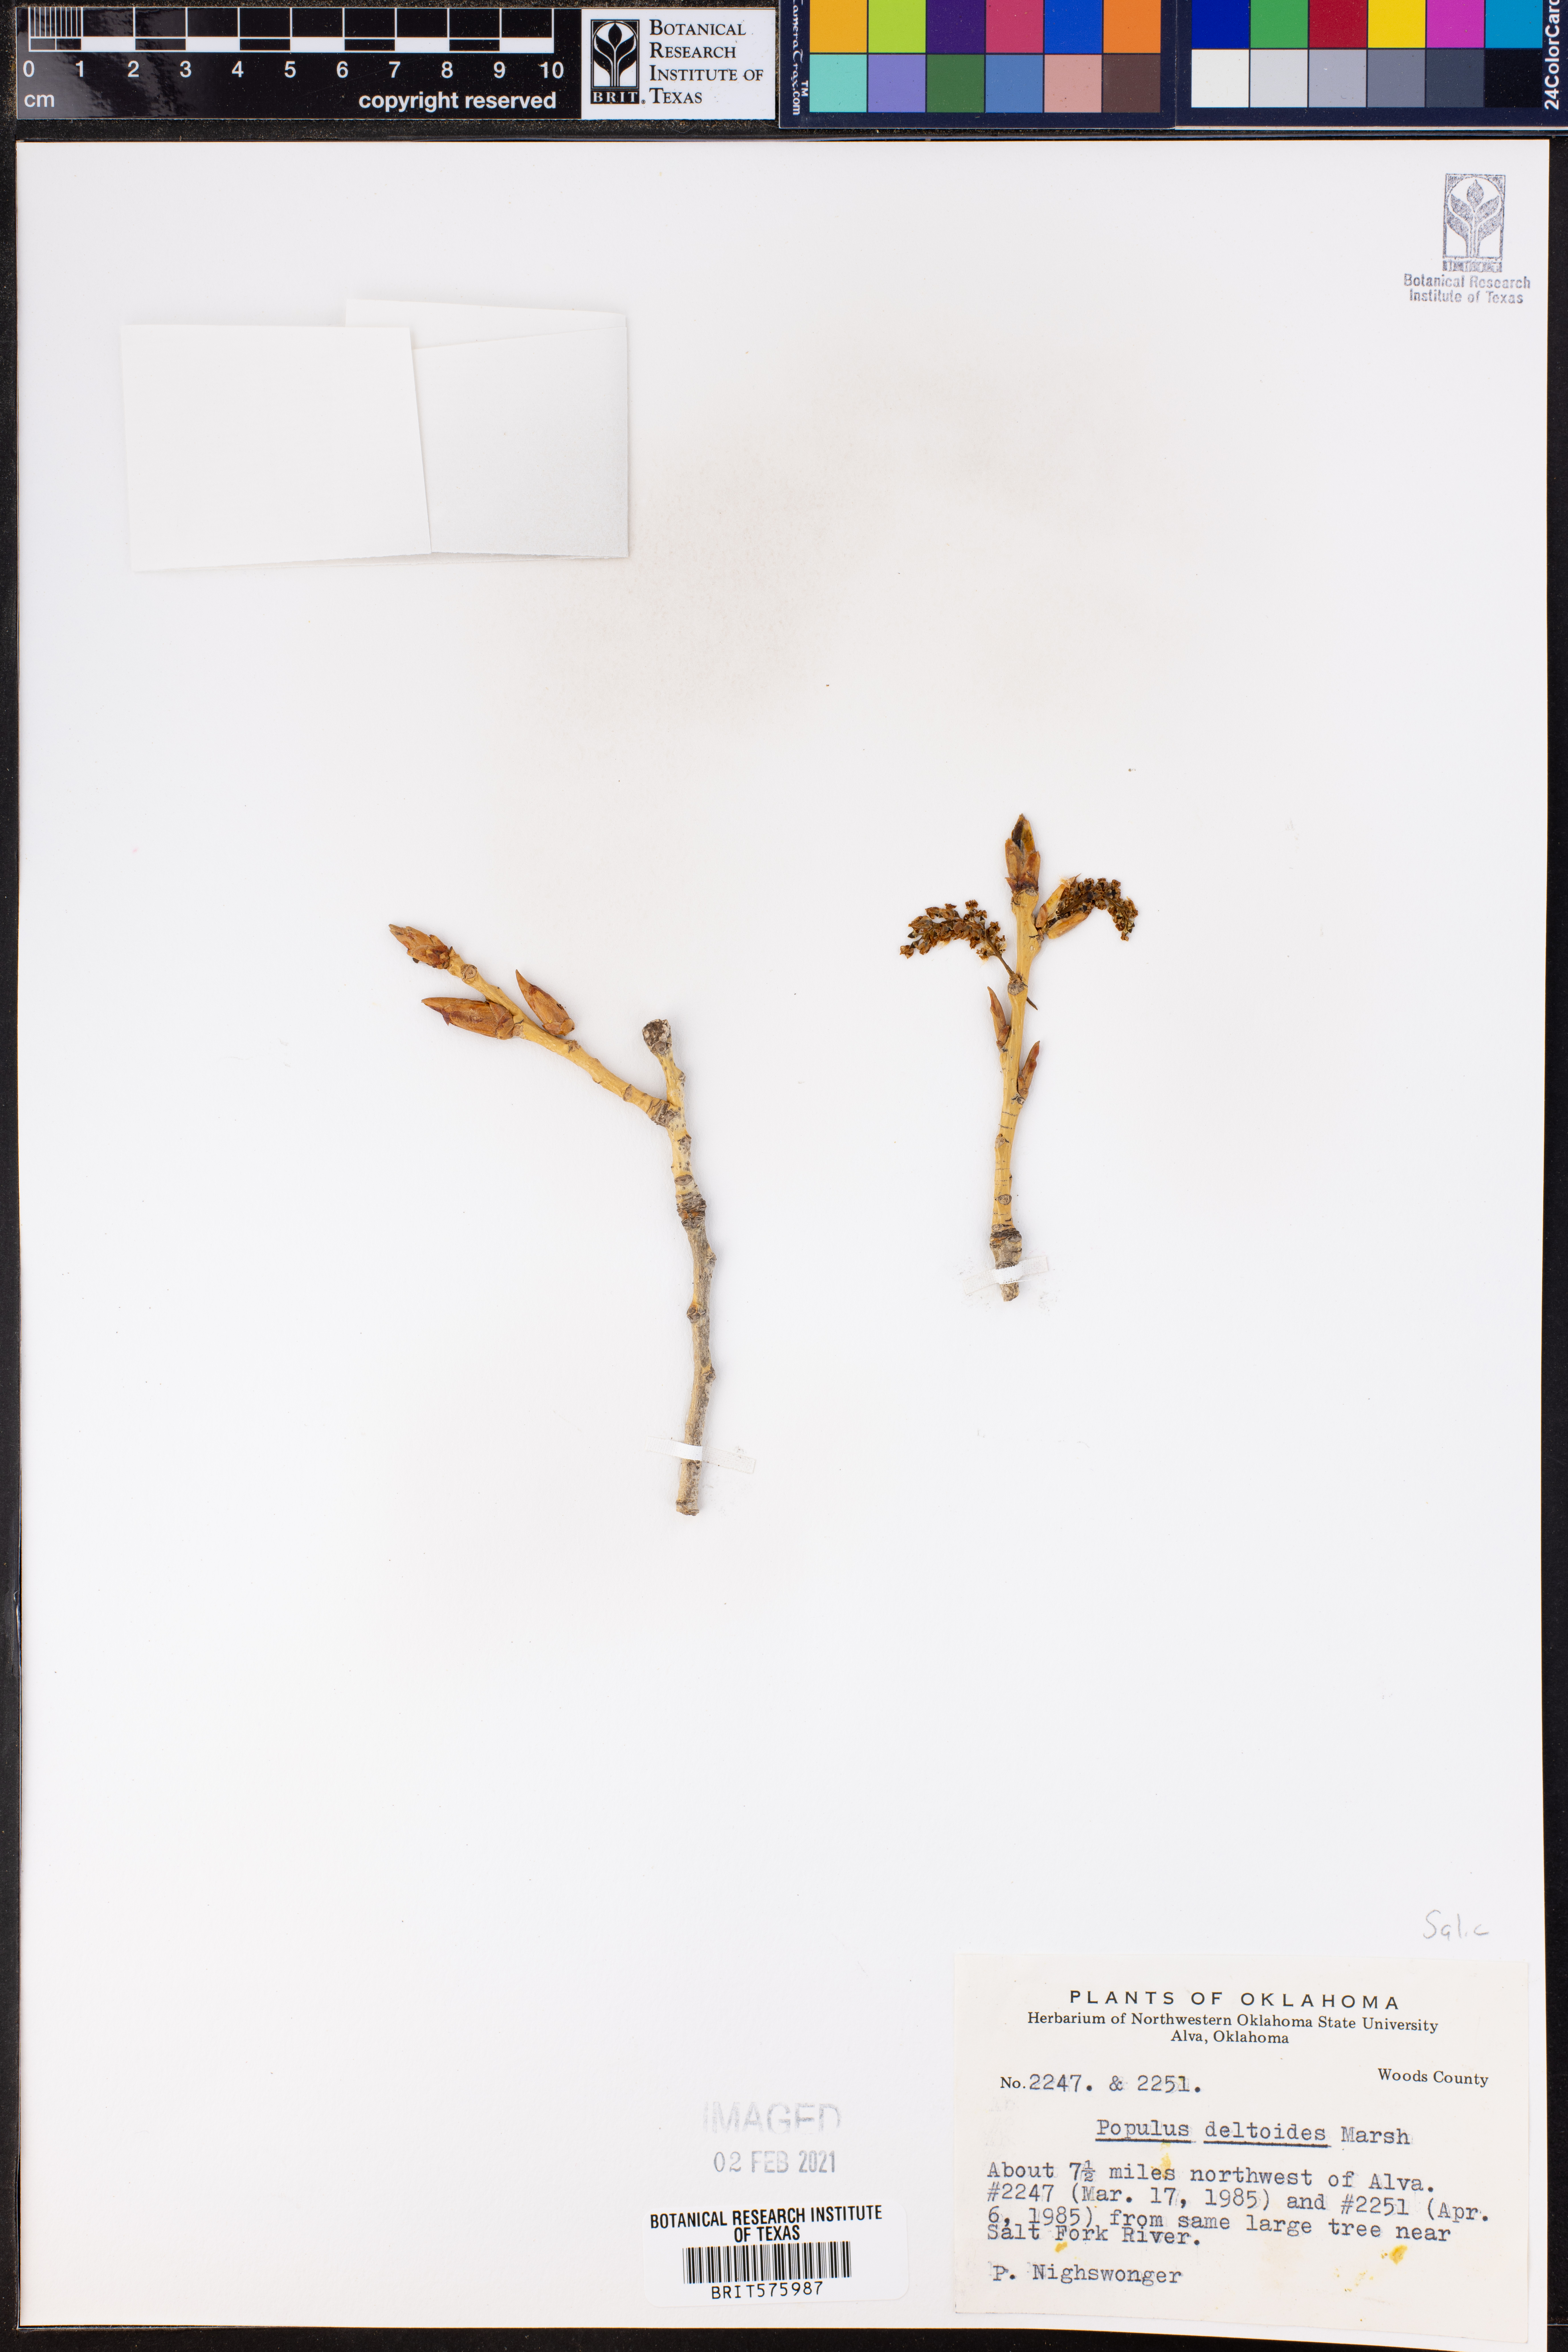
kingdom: Plantae
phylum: Tracheophyta
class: Magnoliopsida
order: Malpighiales
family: Salicaceae
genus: Populus
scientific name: Populus deltoides
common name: Eastern cottonwood
